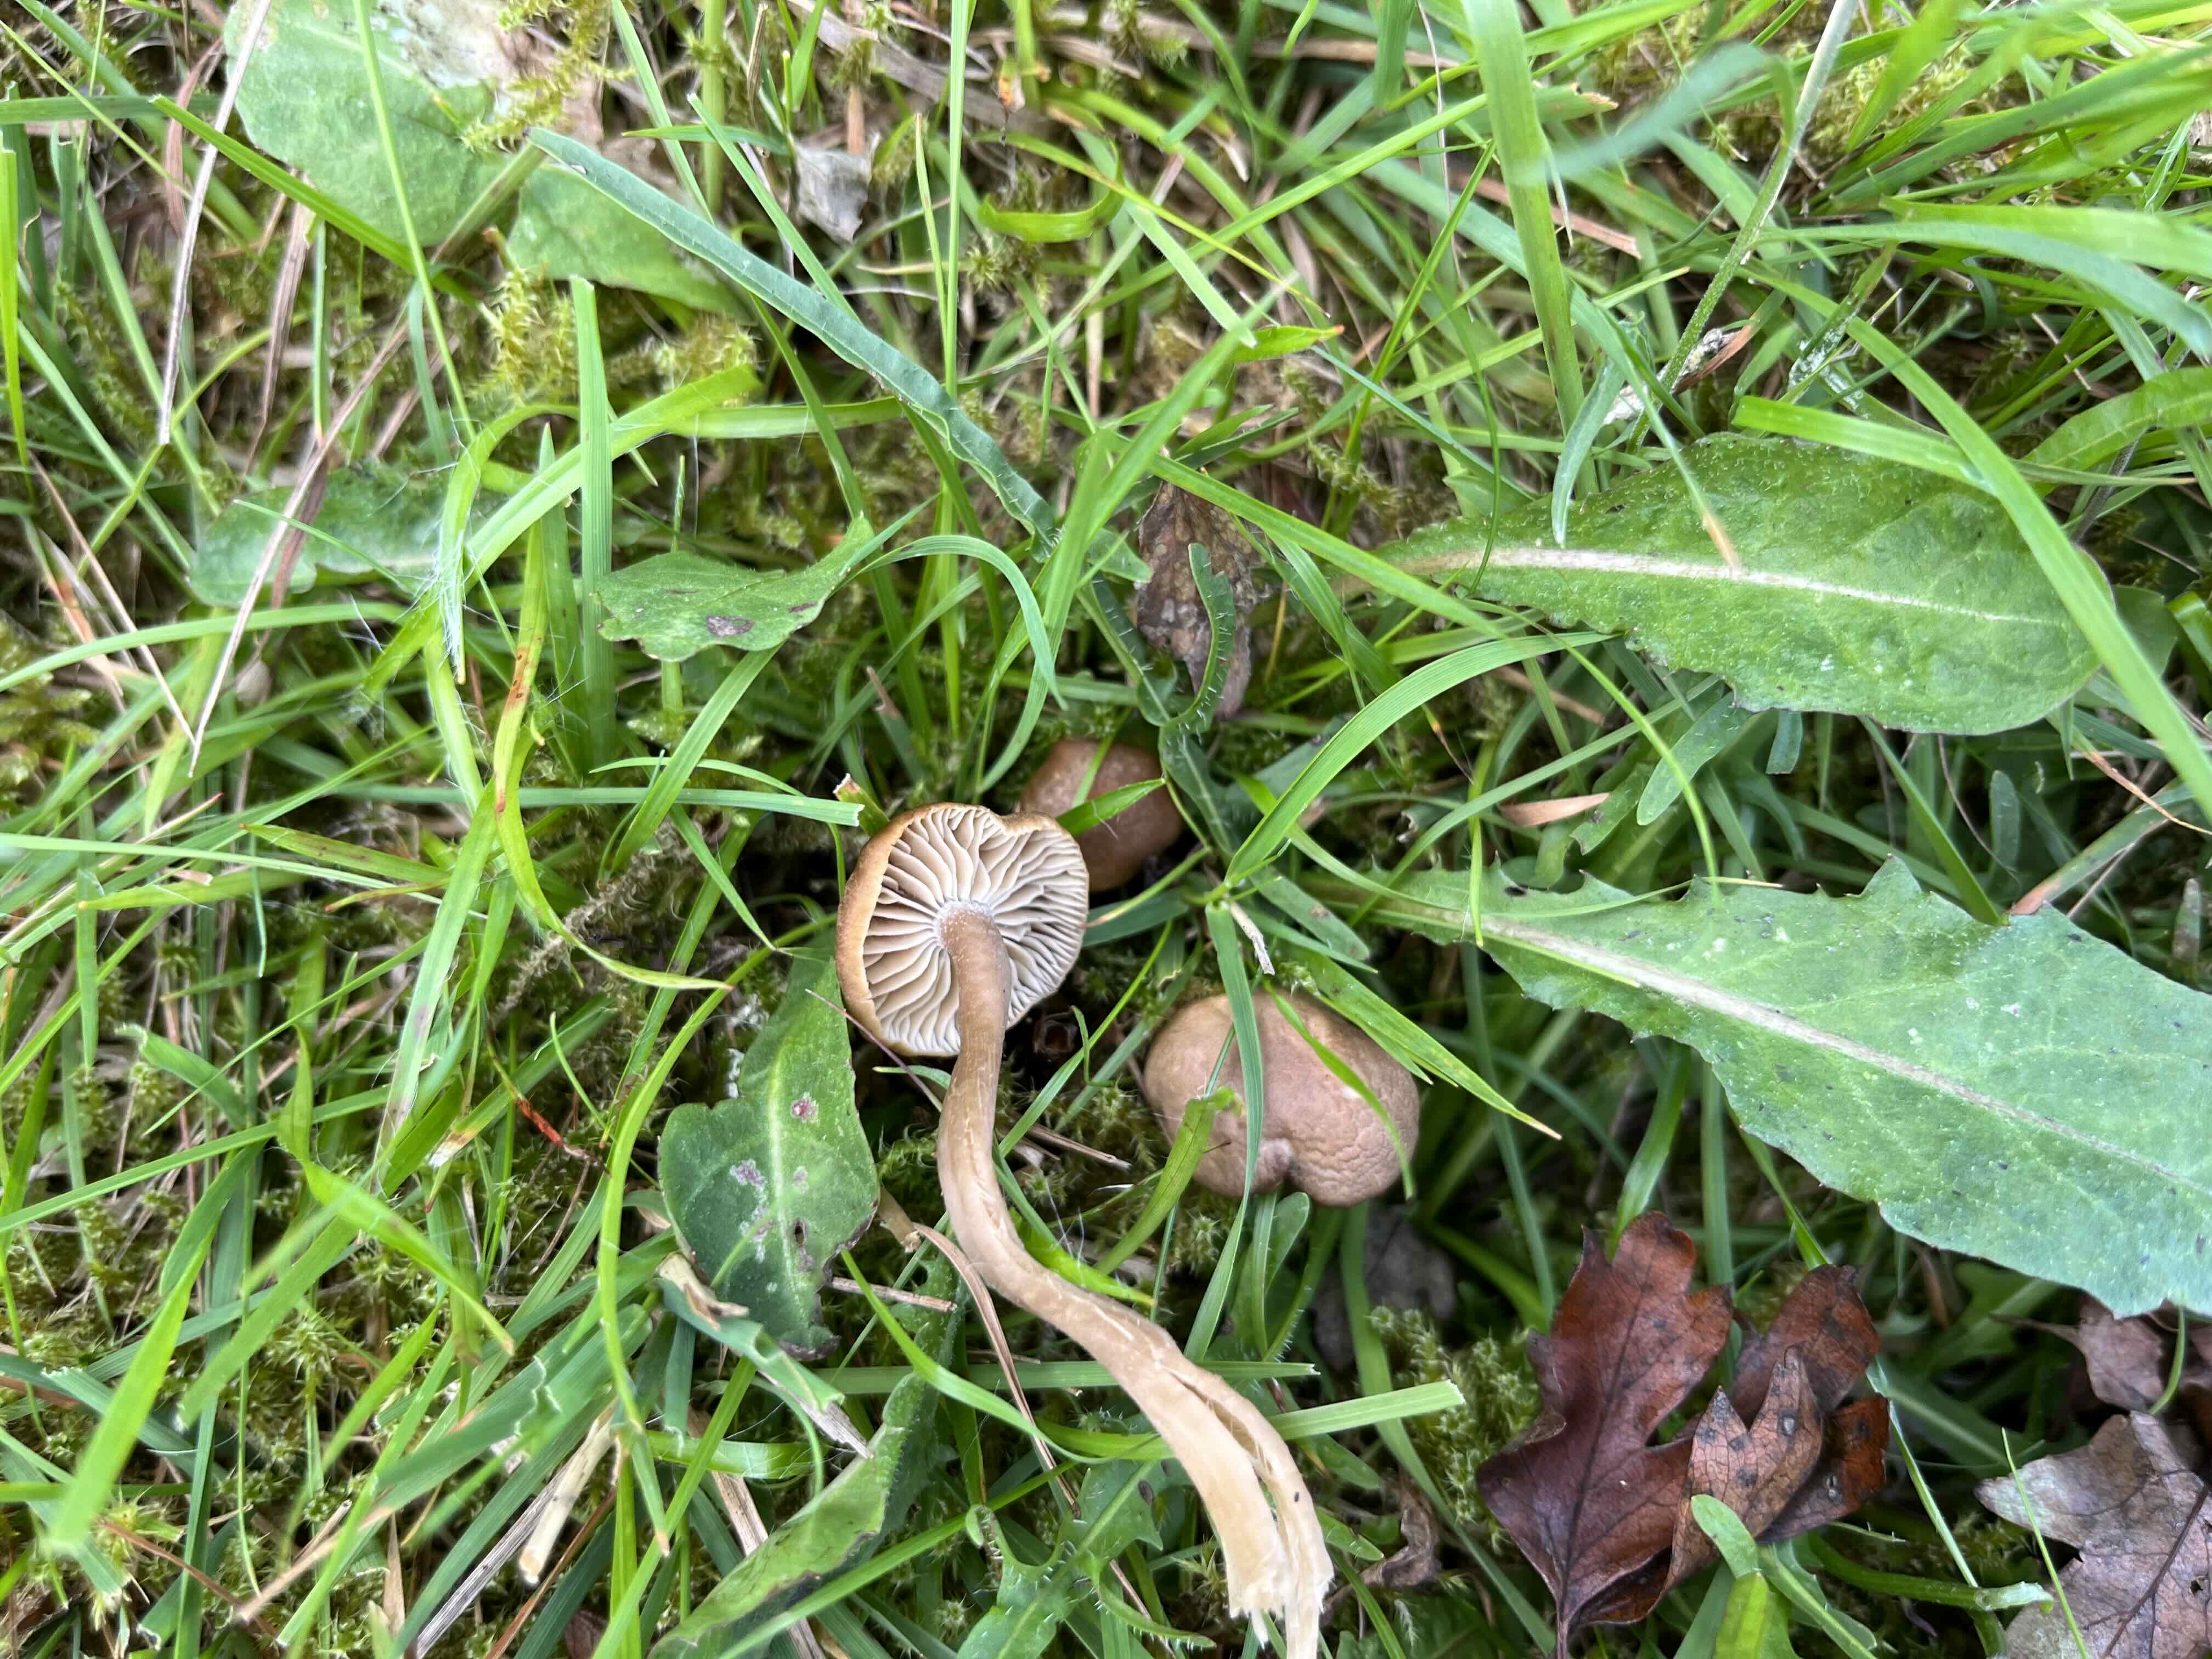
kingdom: Fungi
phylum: Basidiomycota
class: Agaricomycetes
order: Agaricales
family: Clavariaceae
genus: Camarophyllopsis
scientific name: Camarophyllopsis schulzeri
